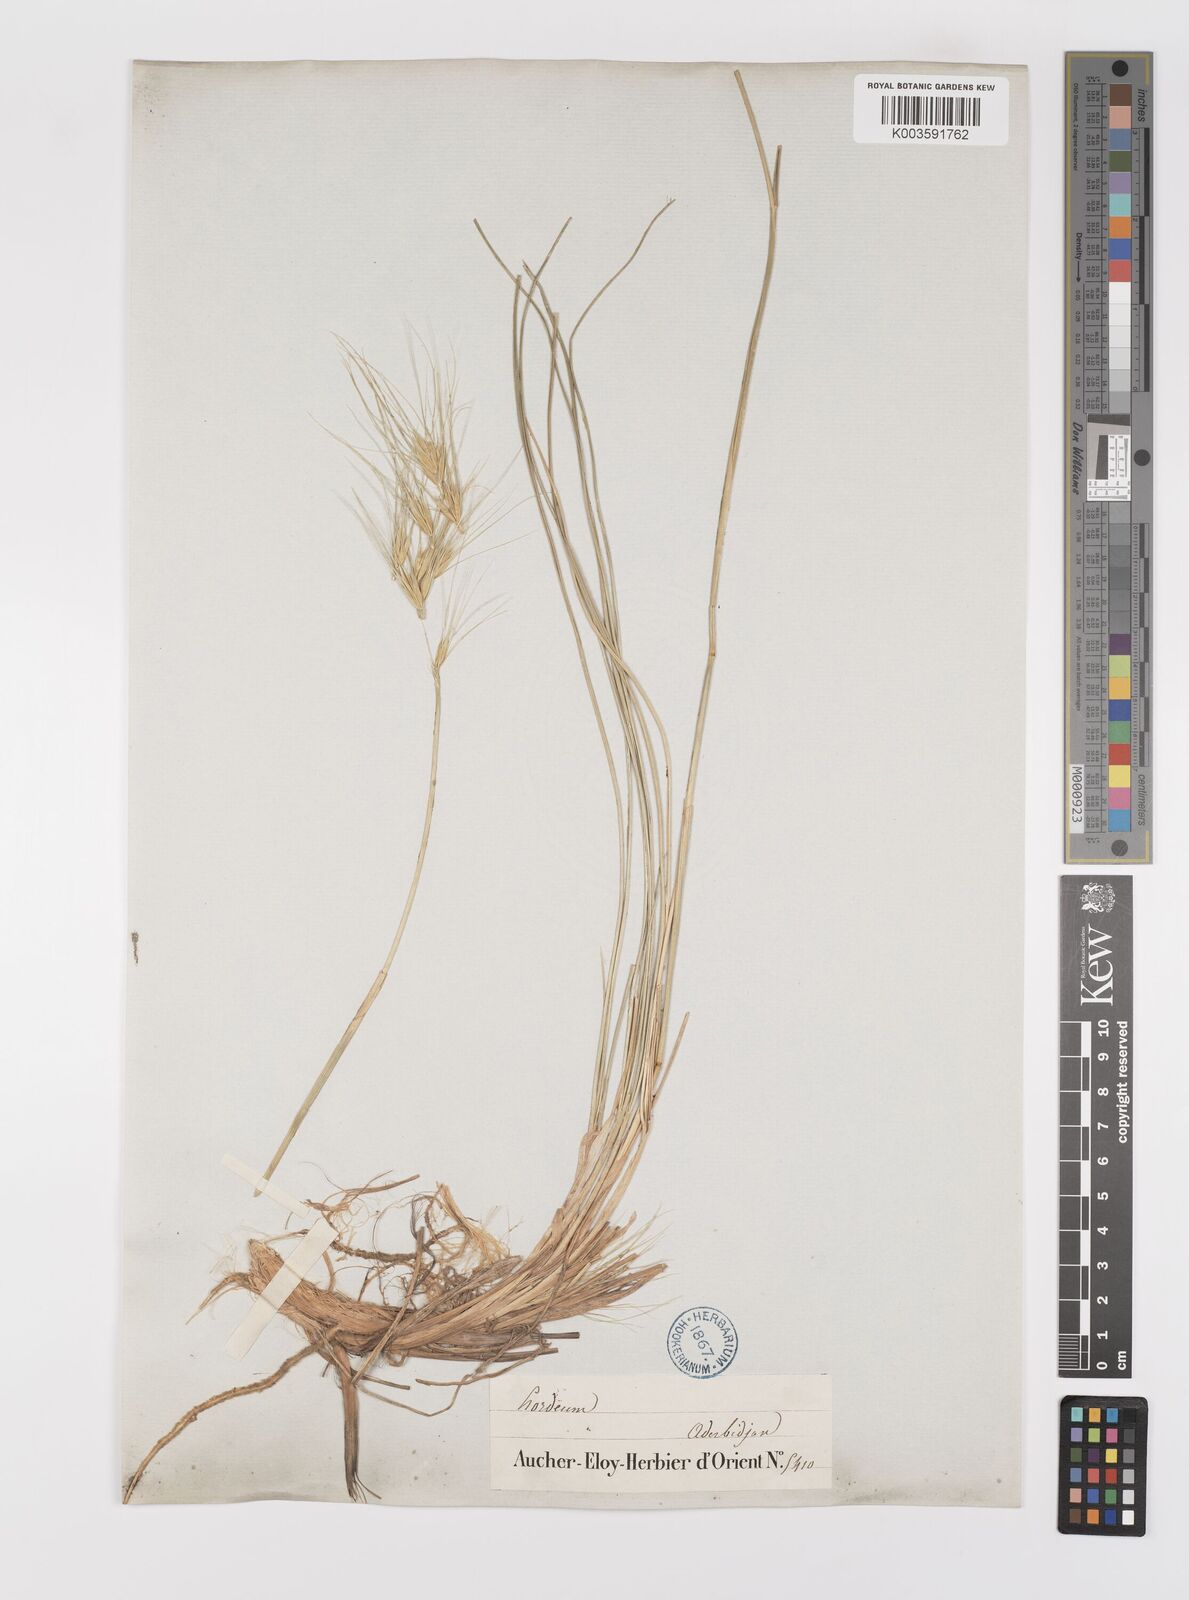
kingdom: Plantae
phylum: Tracheophyta
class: Liliopsida
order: Poales
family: Poaceae
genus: Psathyrostachys
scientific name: Psathyrostachys fragilis
